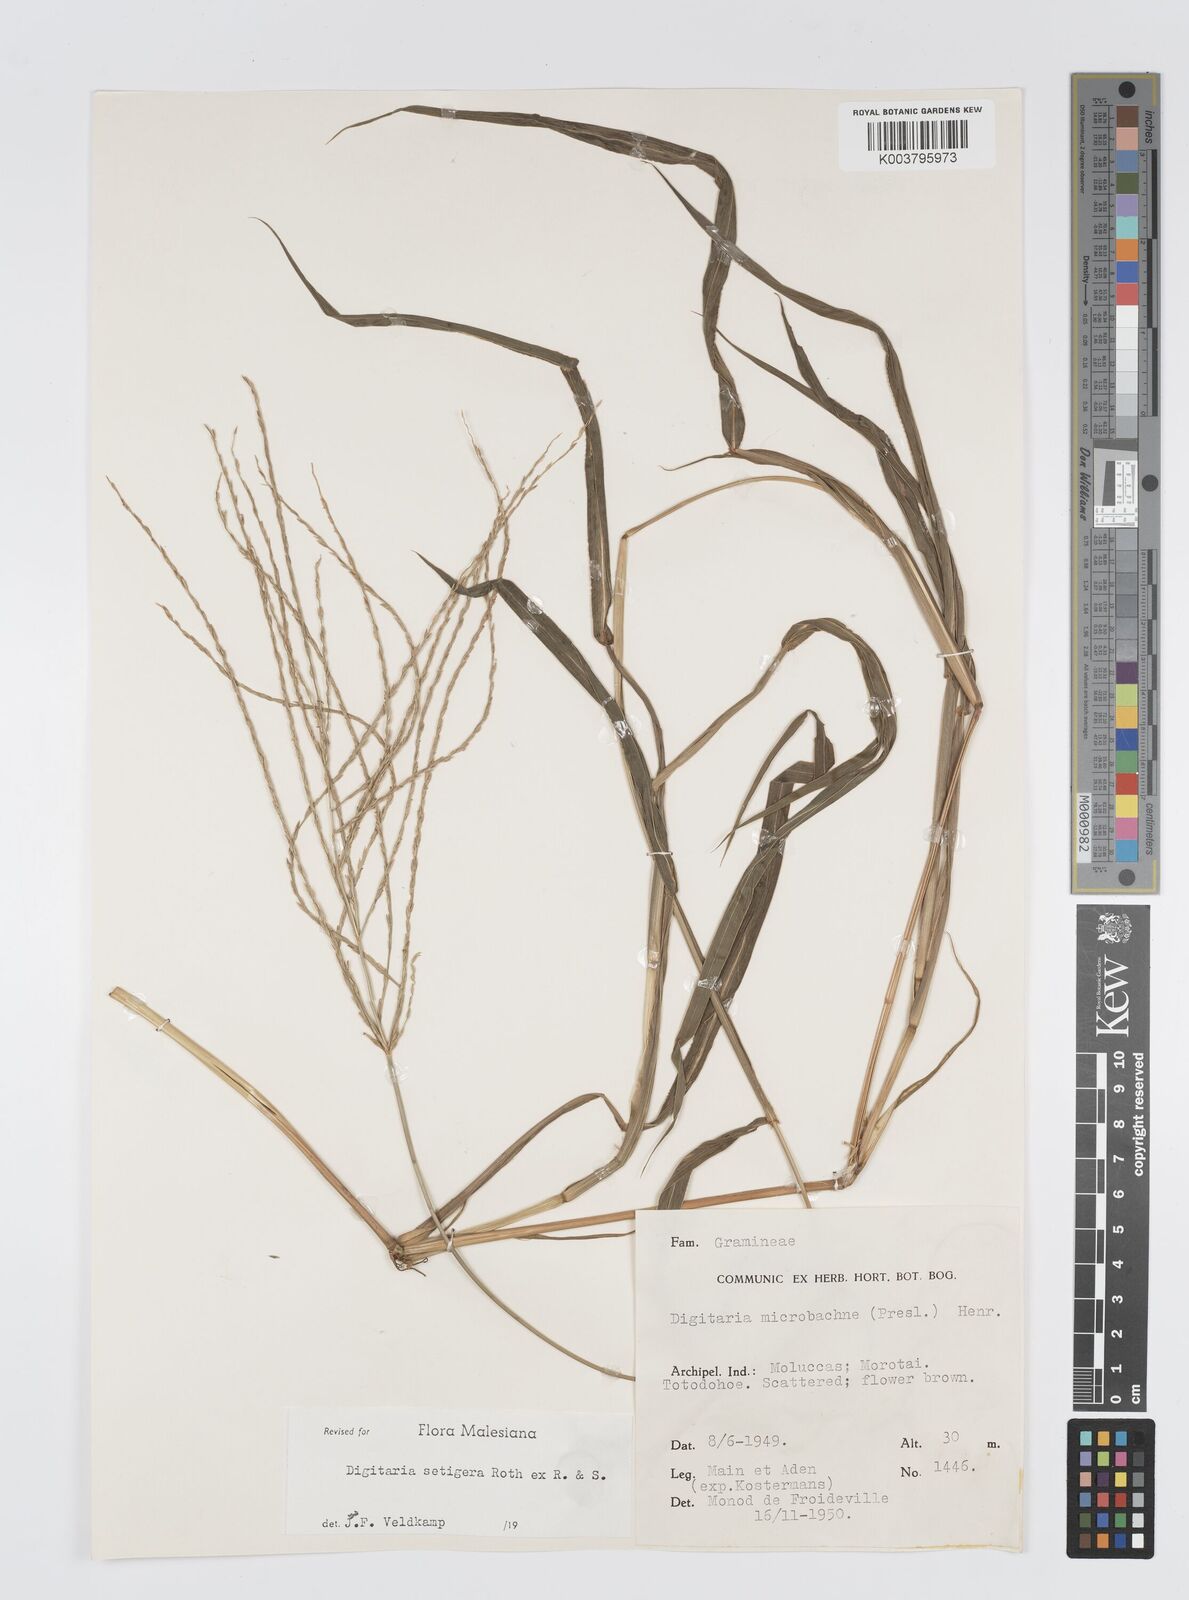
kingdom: Plantae
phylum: Tracheophyta
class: Liliopsida
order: Poales
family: Poaceae
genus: Digitaria
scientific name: Digitaria setigera
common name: East indian crabgrass
